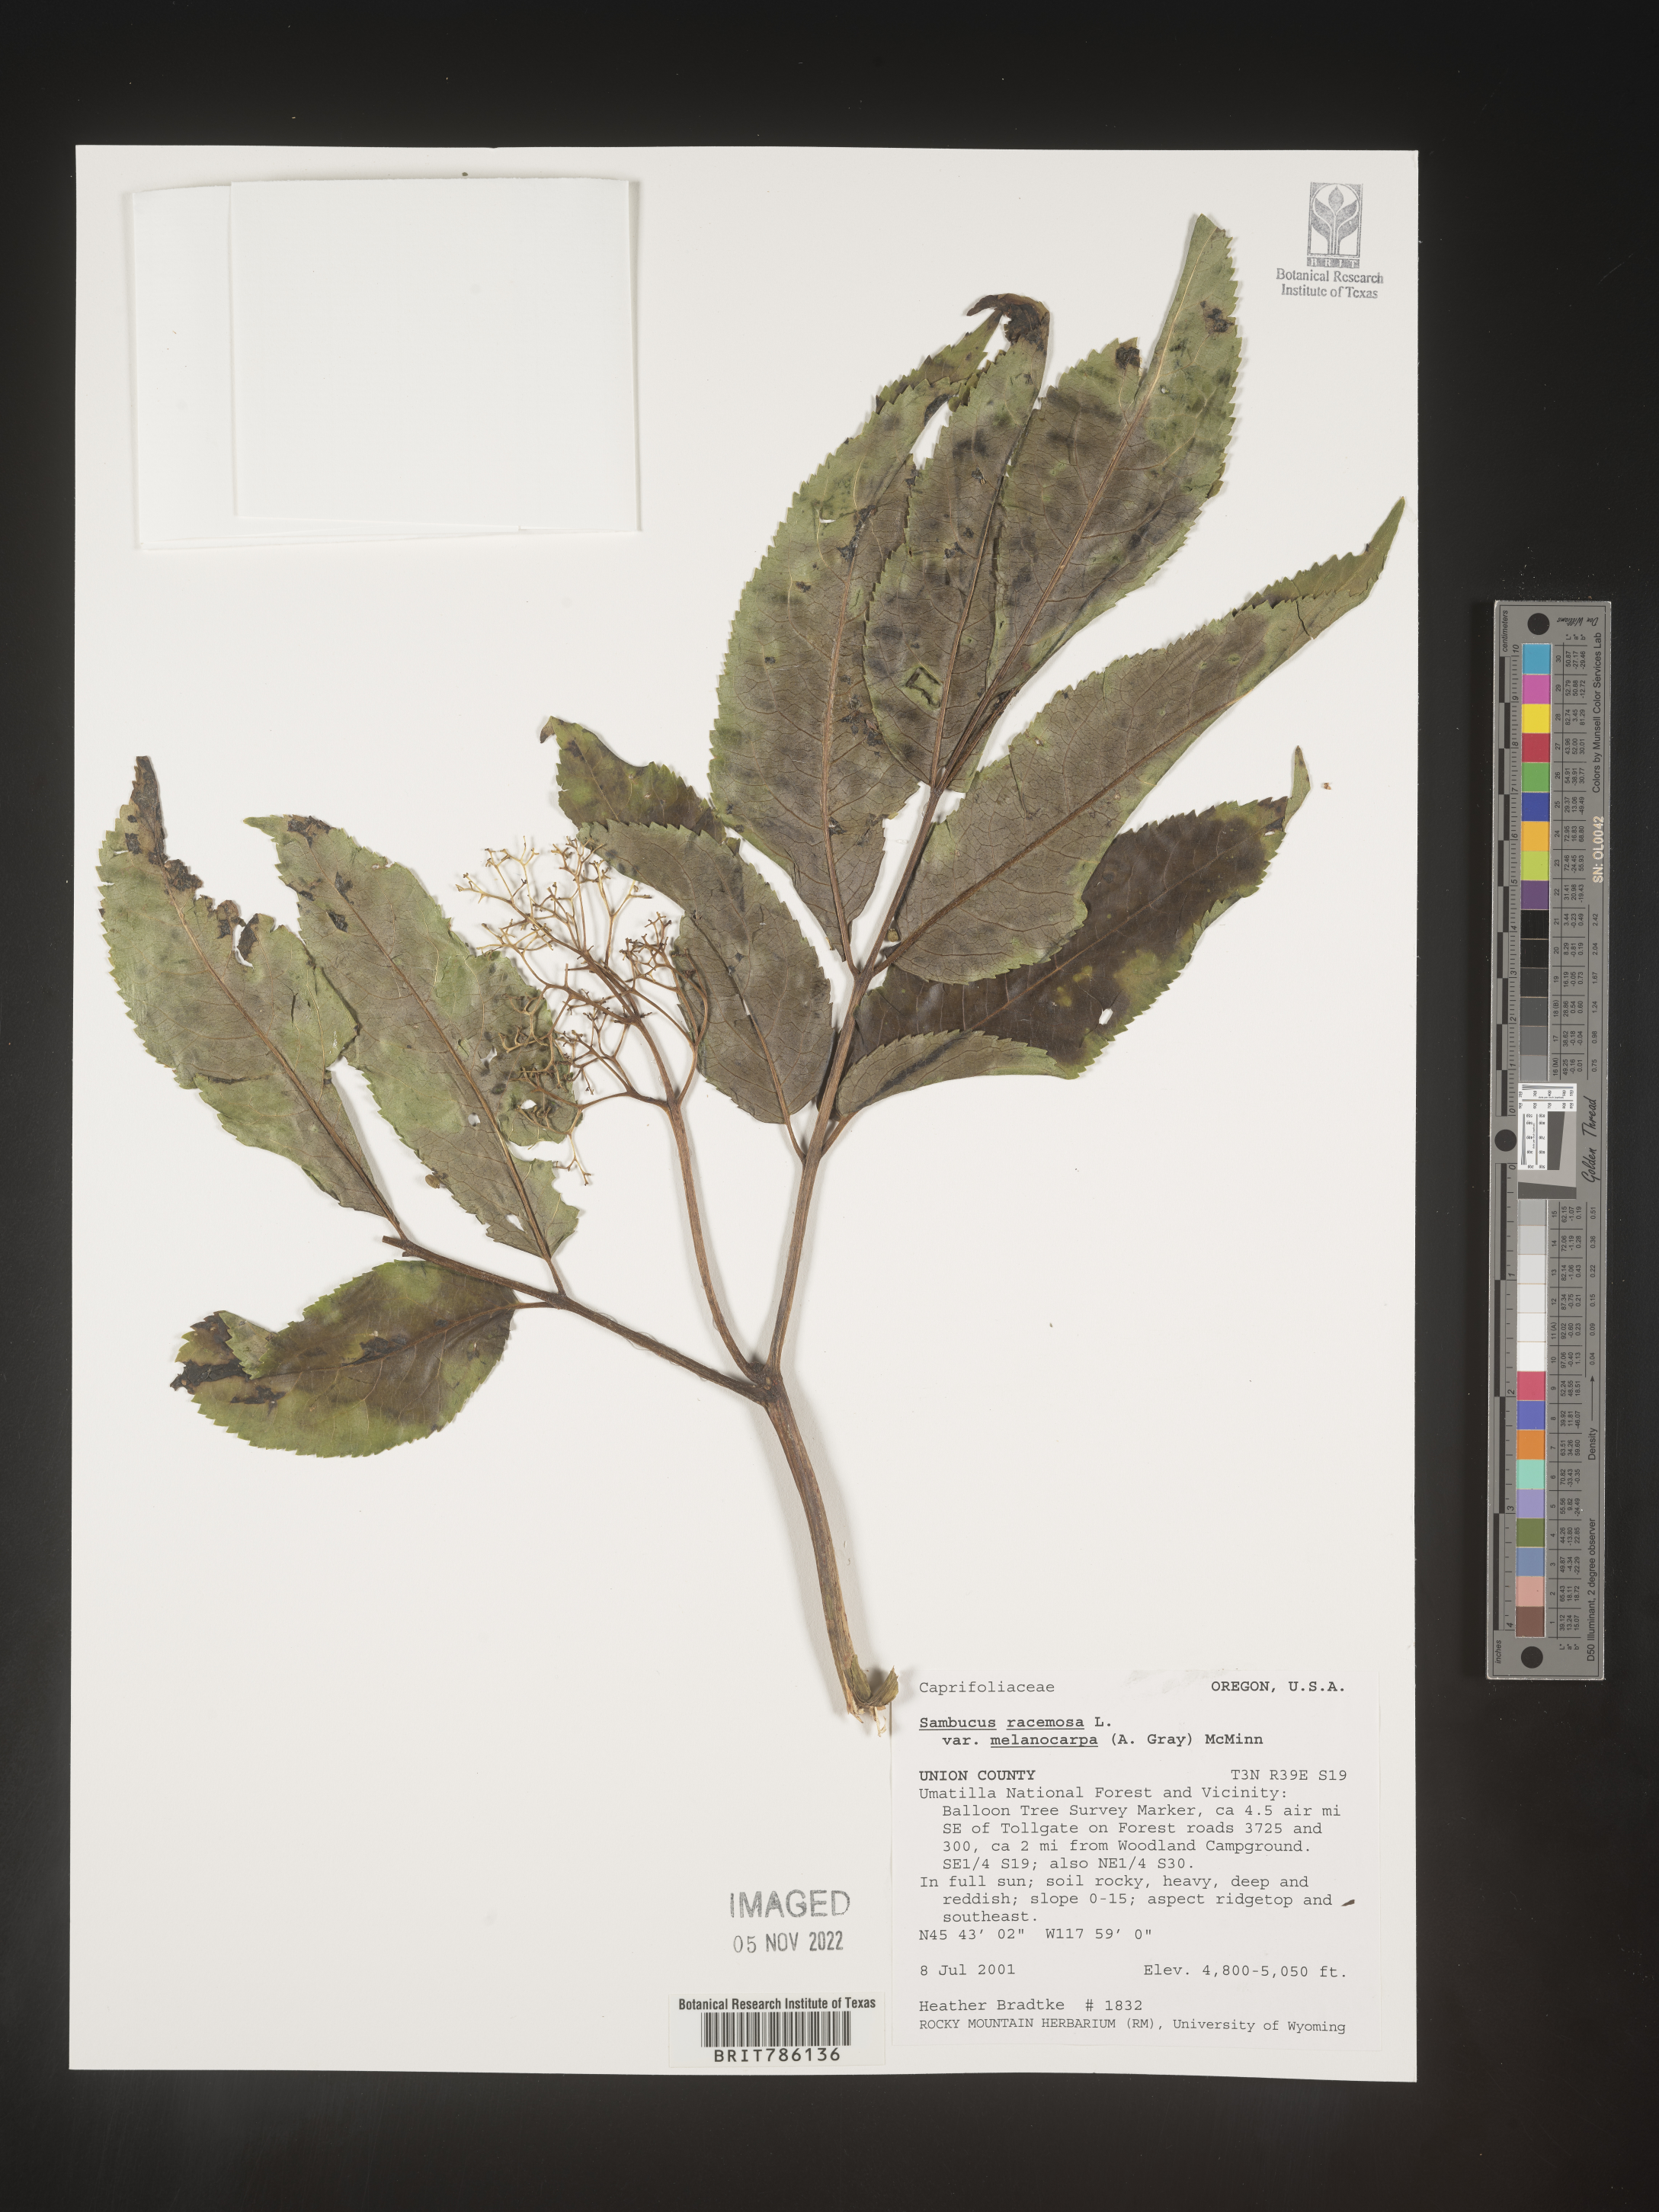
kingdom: Plantae
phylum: Tracheophyta
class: Magnoliopsida
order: Dipsacales
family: Viburnaceae
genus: Sambucus
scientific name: Sambucus
